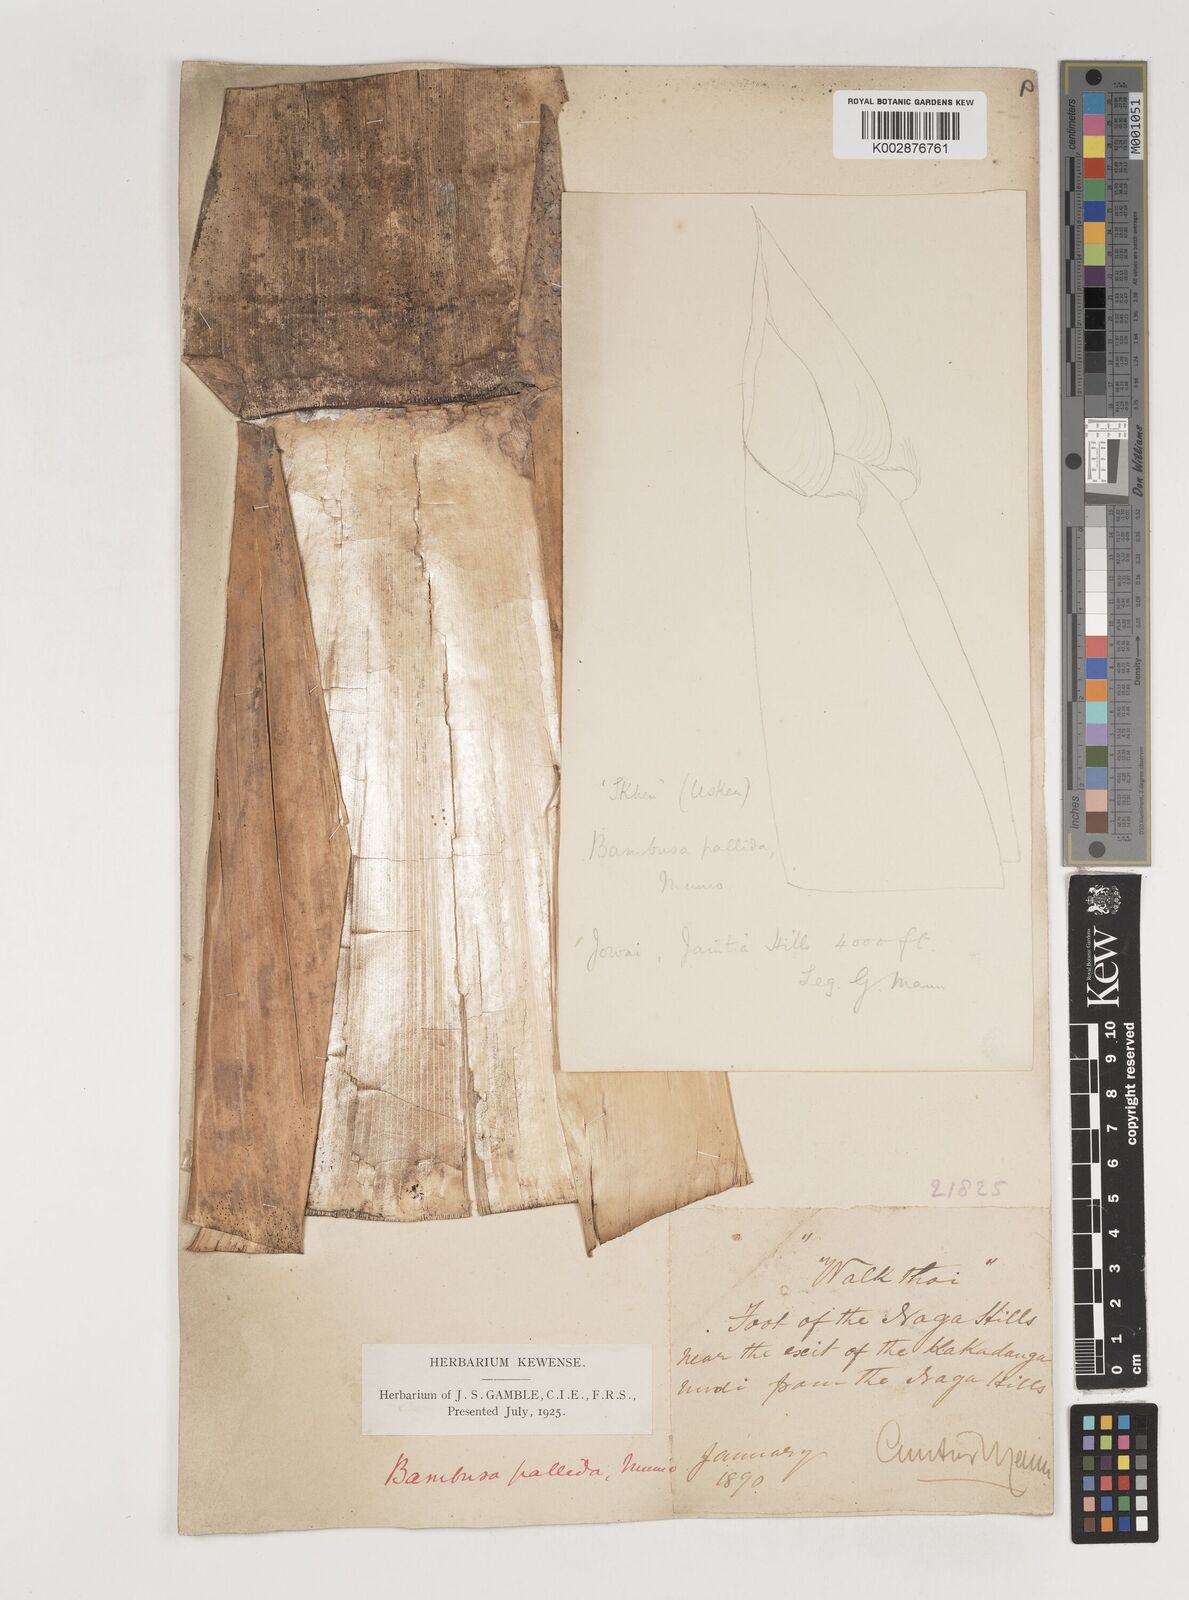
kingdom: Plantae
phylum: Tracheophyta
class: Liliopsida
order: Poales
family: Poaceae
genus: Bambusa
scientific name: Bambusa pallida
